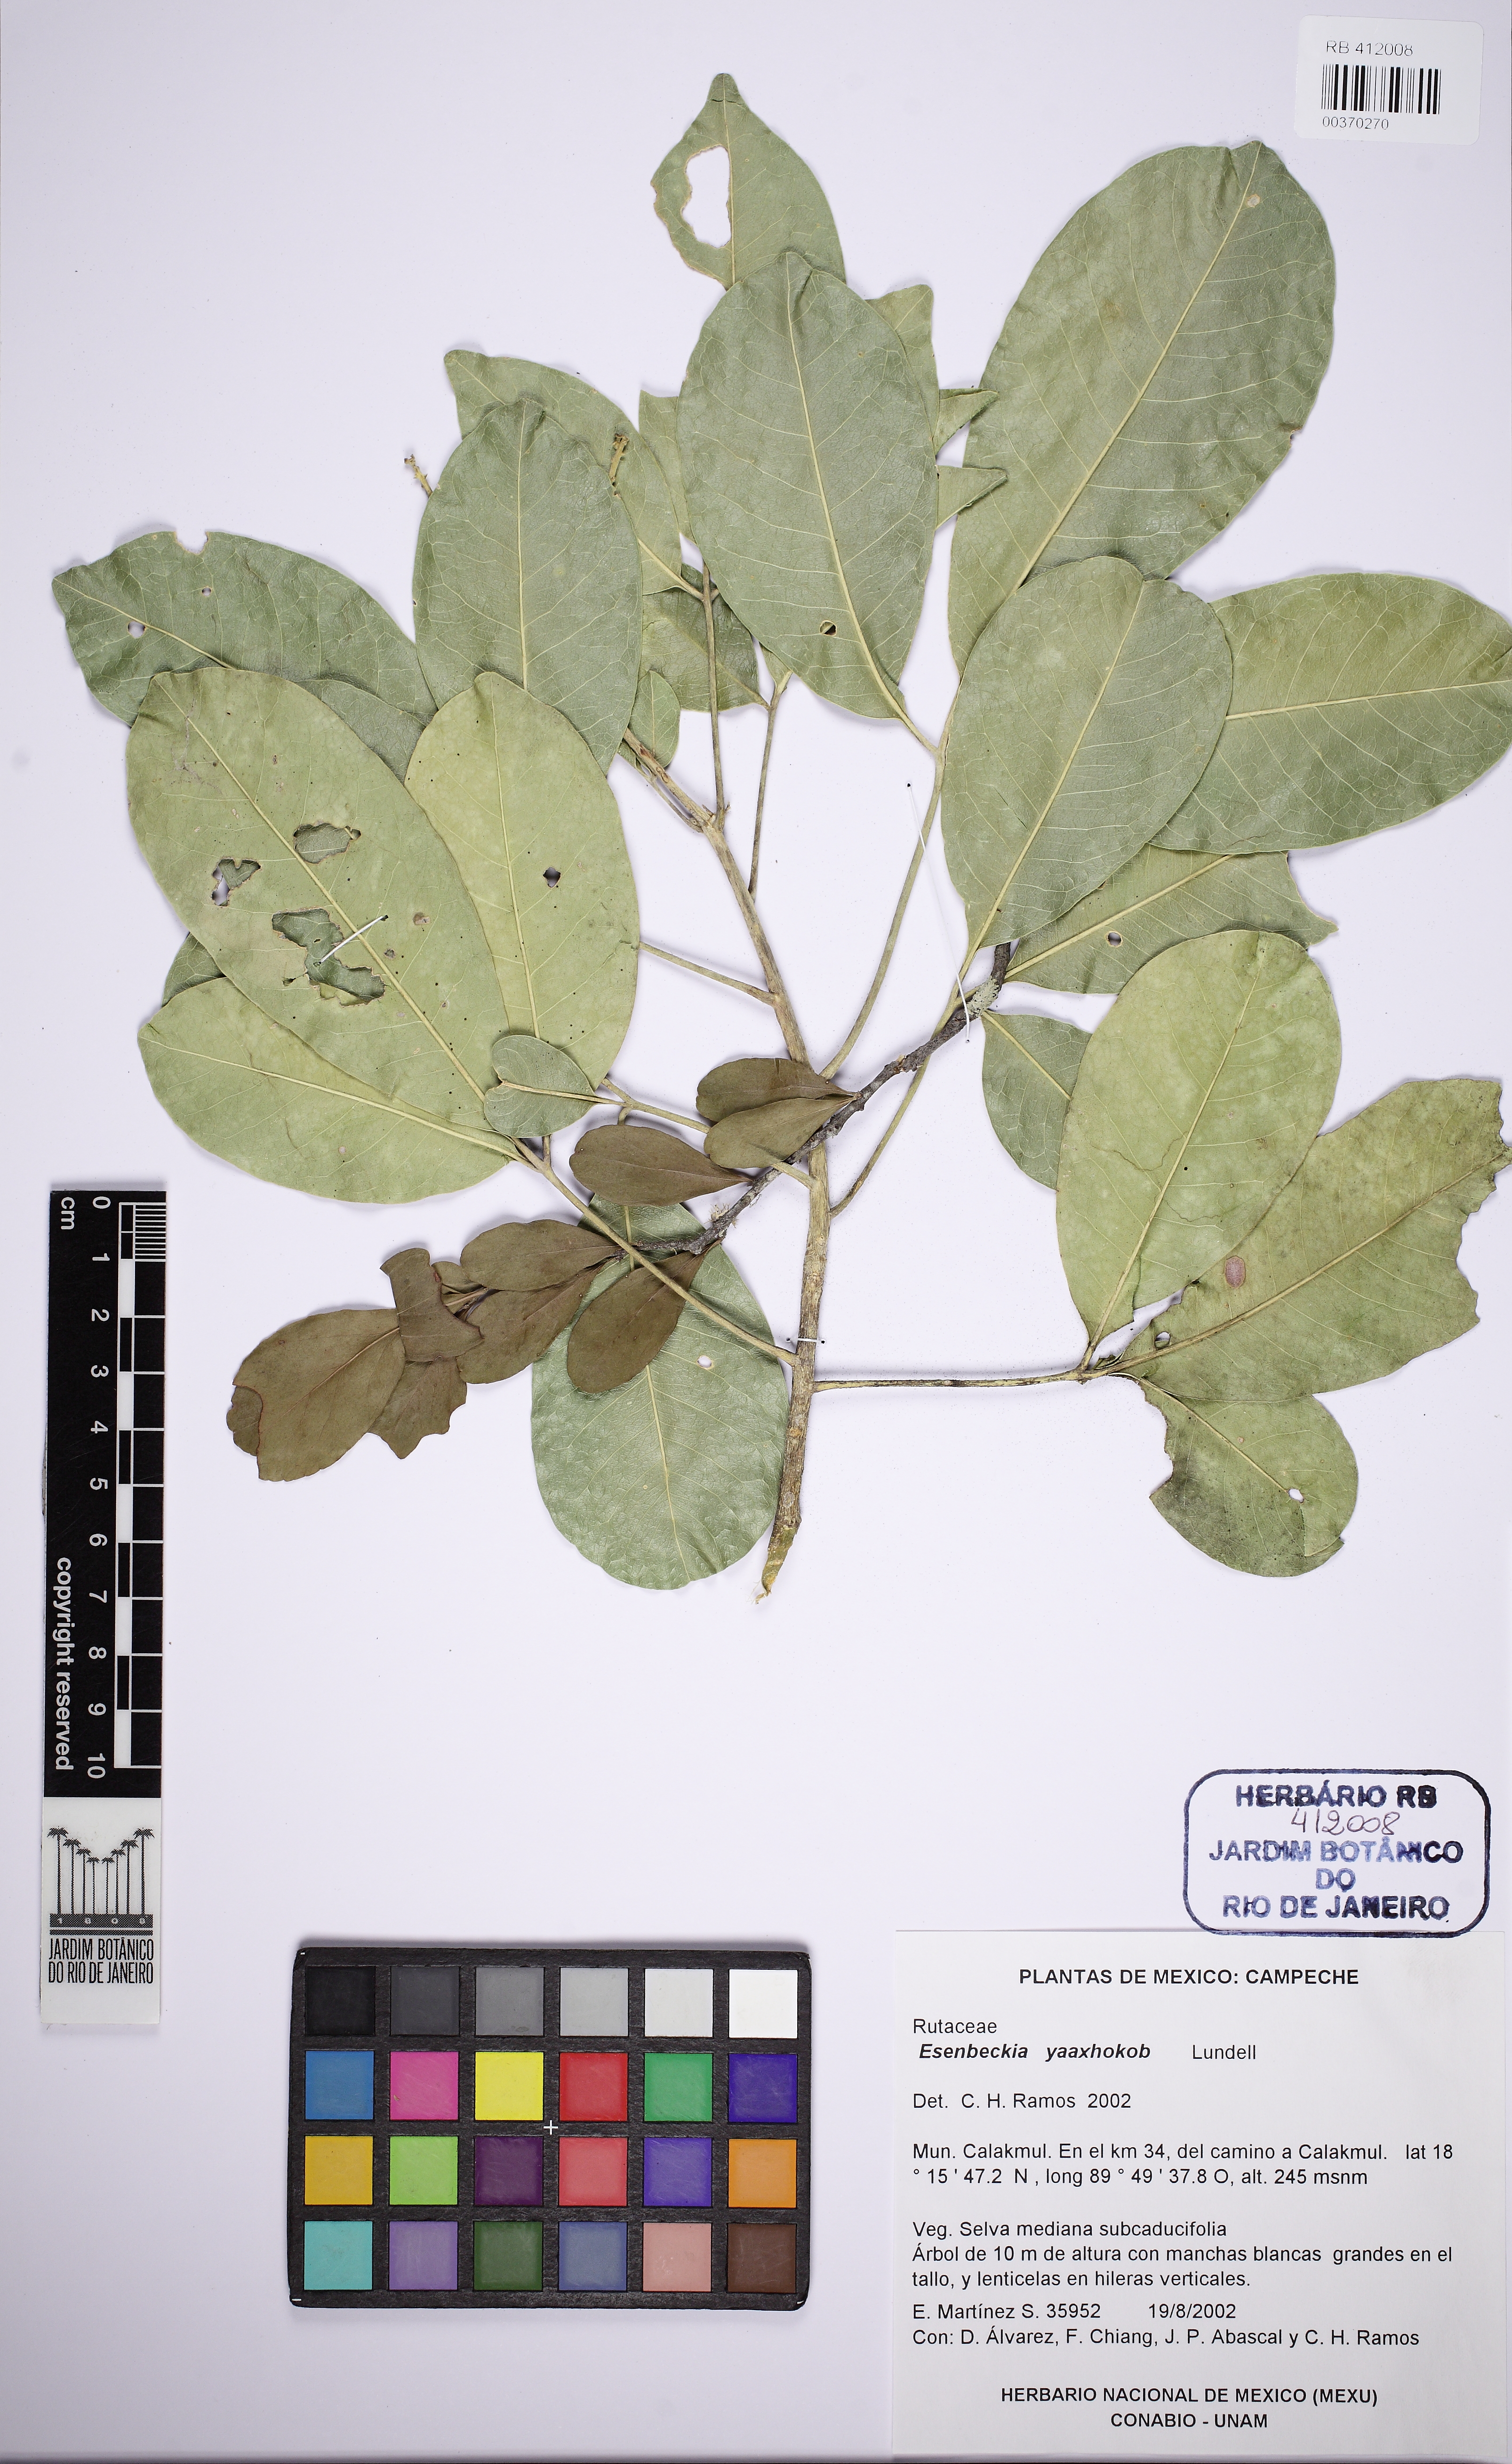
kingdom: Plantae
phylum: Tracheophyta
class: Magnoliopsida
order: Sapindales
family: Rutaceae
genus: Esenbeckia
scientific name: Esenbeckia berlandieri
